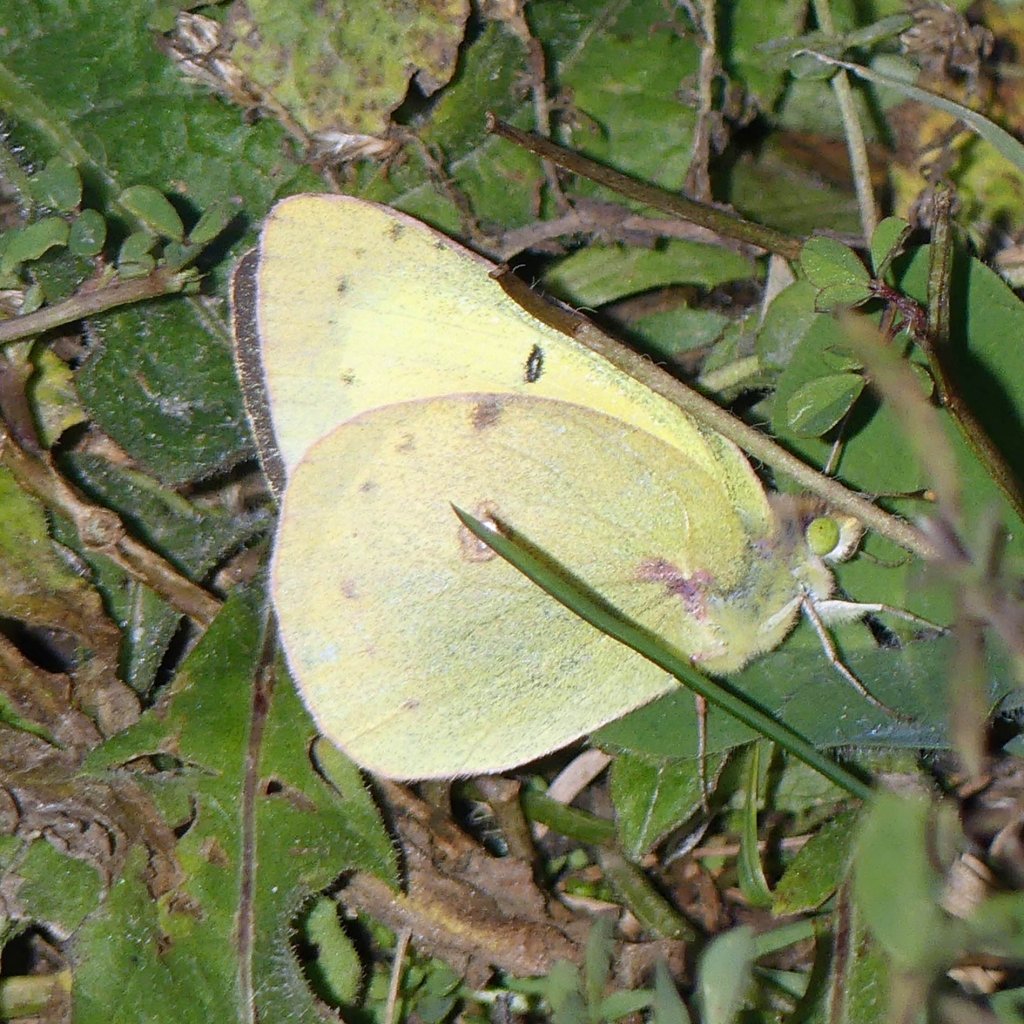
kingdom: Animalia
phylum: Arthropoda
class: Insecta
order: Lepidoptera
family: Pieridae
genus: Colias
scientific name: Colias philodice
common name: Clouded Sulphur
